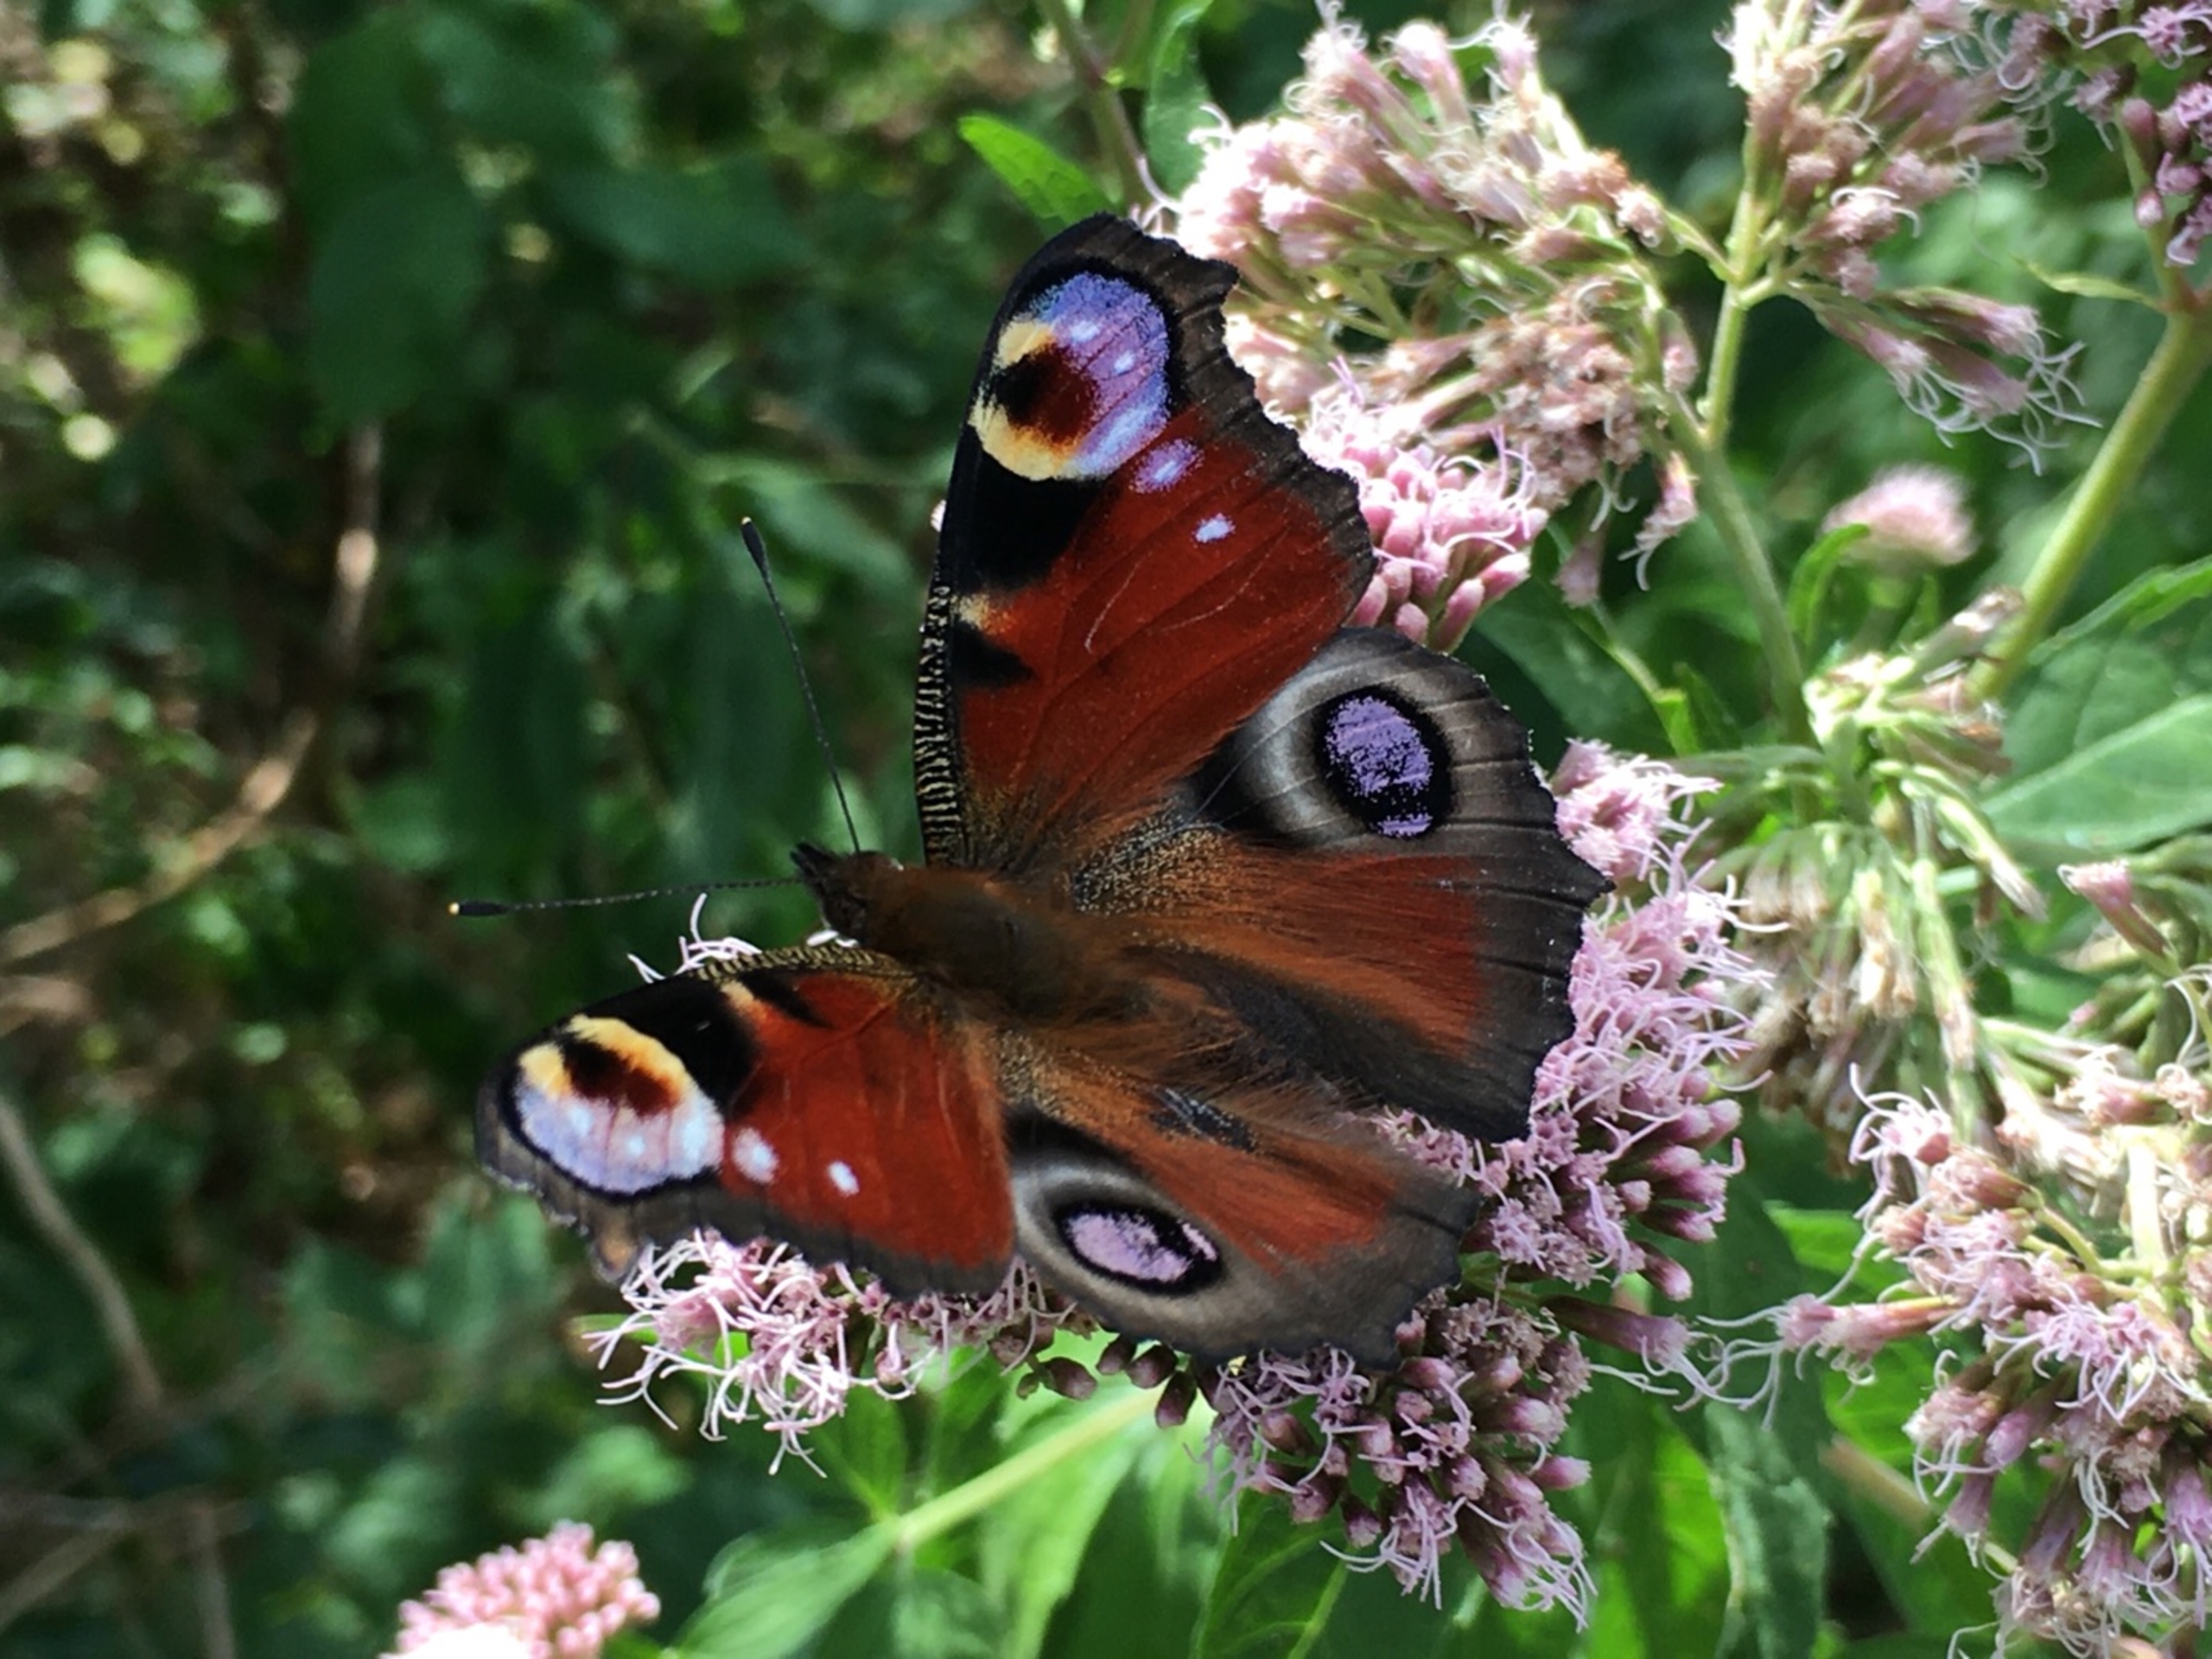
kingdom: Animalia
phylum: Arthropoda
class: Insecta
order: Lepidoptera
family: Nymphalidae
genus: Aglais
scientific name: Aglais io
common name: Dagpåfugleøje
